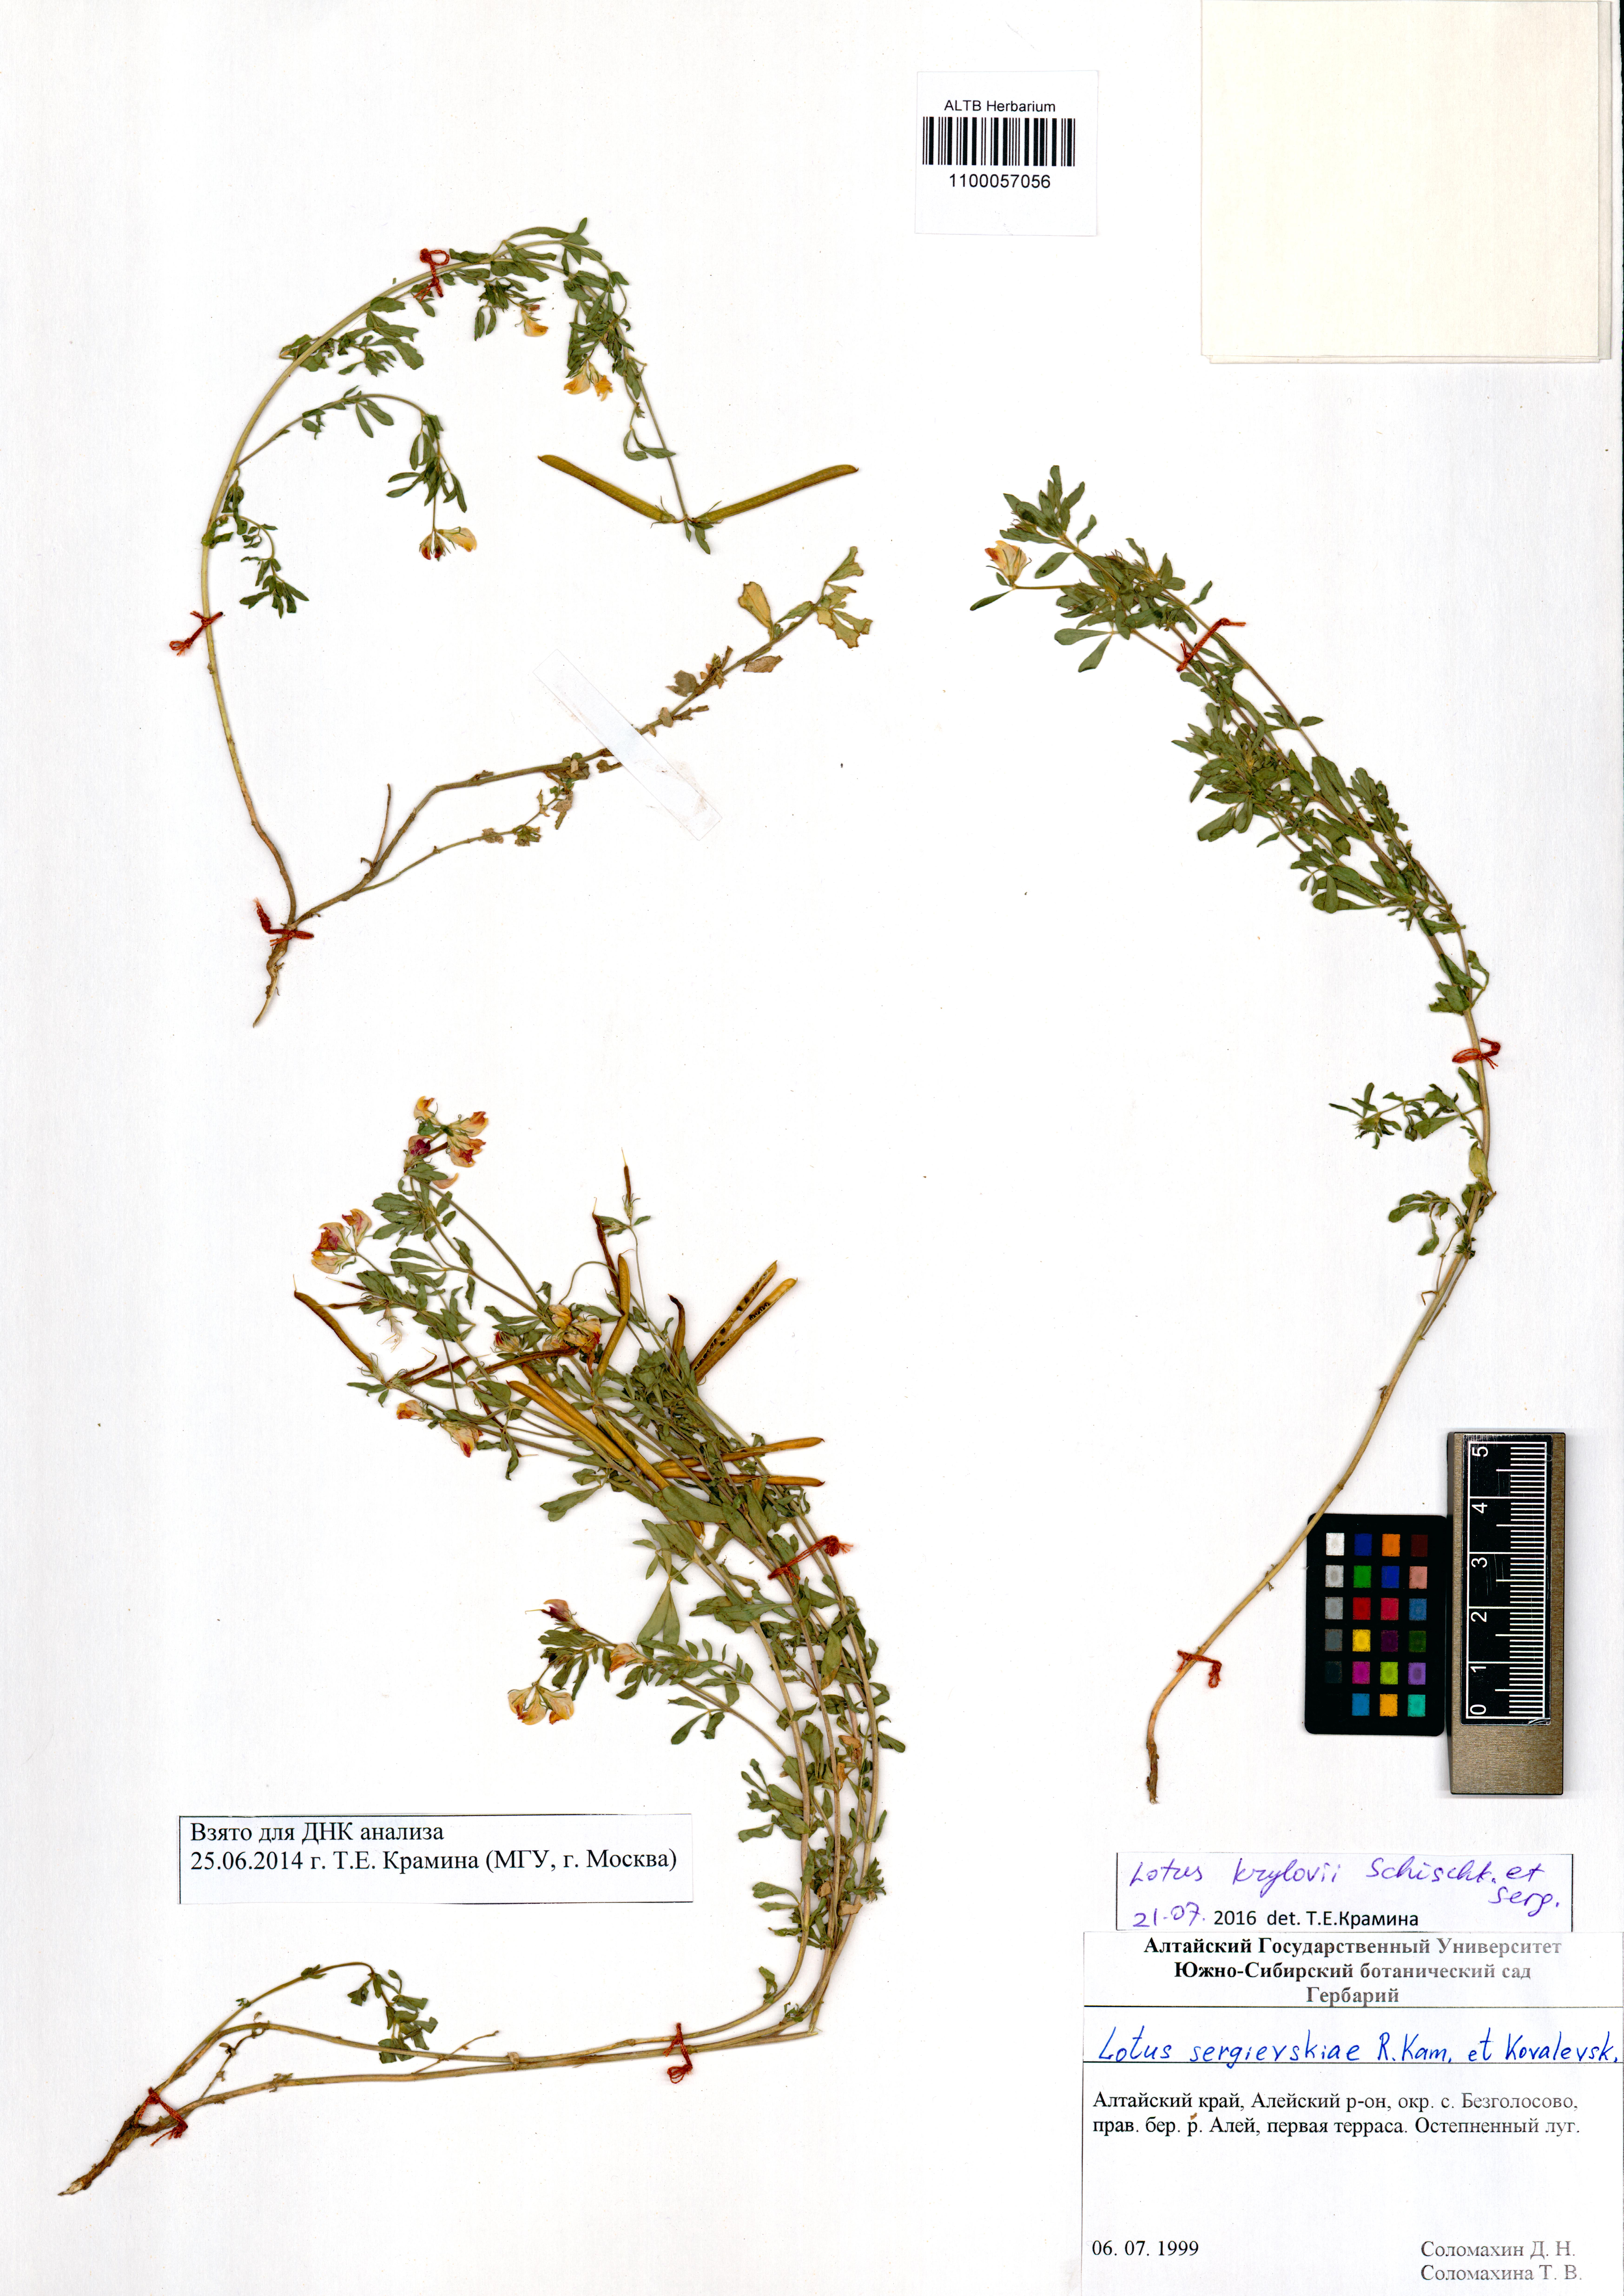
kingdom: Plantae
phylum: Tracheophyta
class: Magnoliopsida
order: Fabales
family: Fabaceae
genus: Lotus
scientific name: Lotus krylovii
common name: Krylov's bird's-foot trefoil
